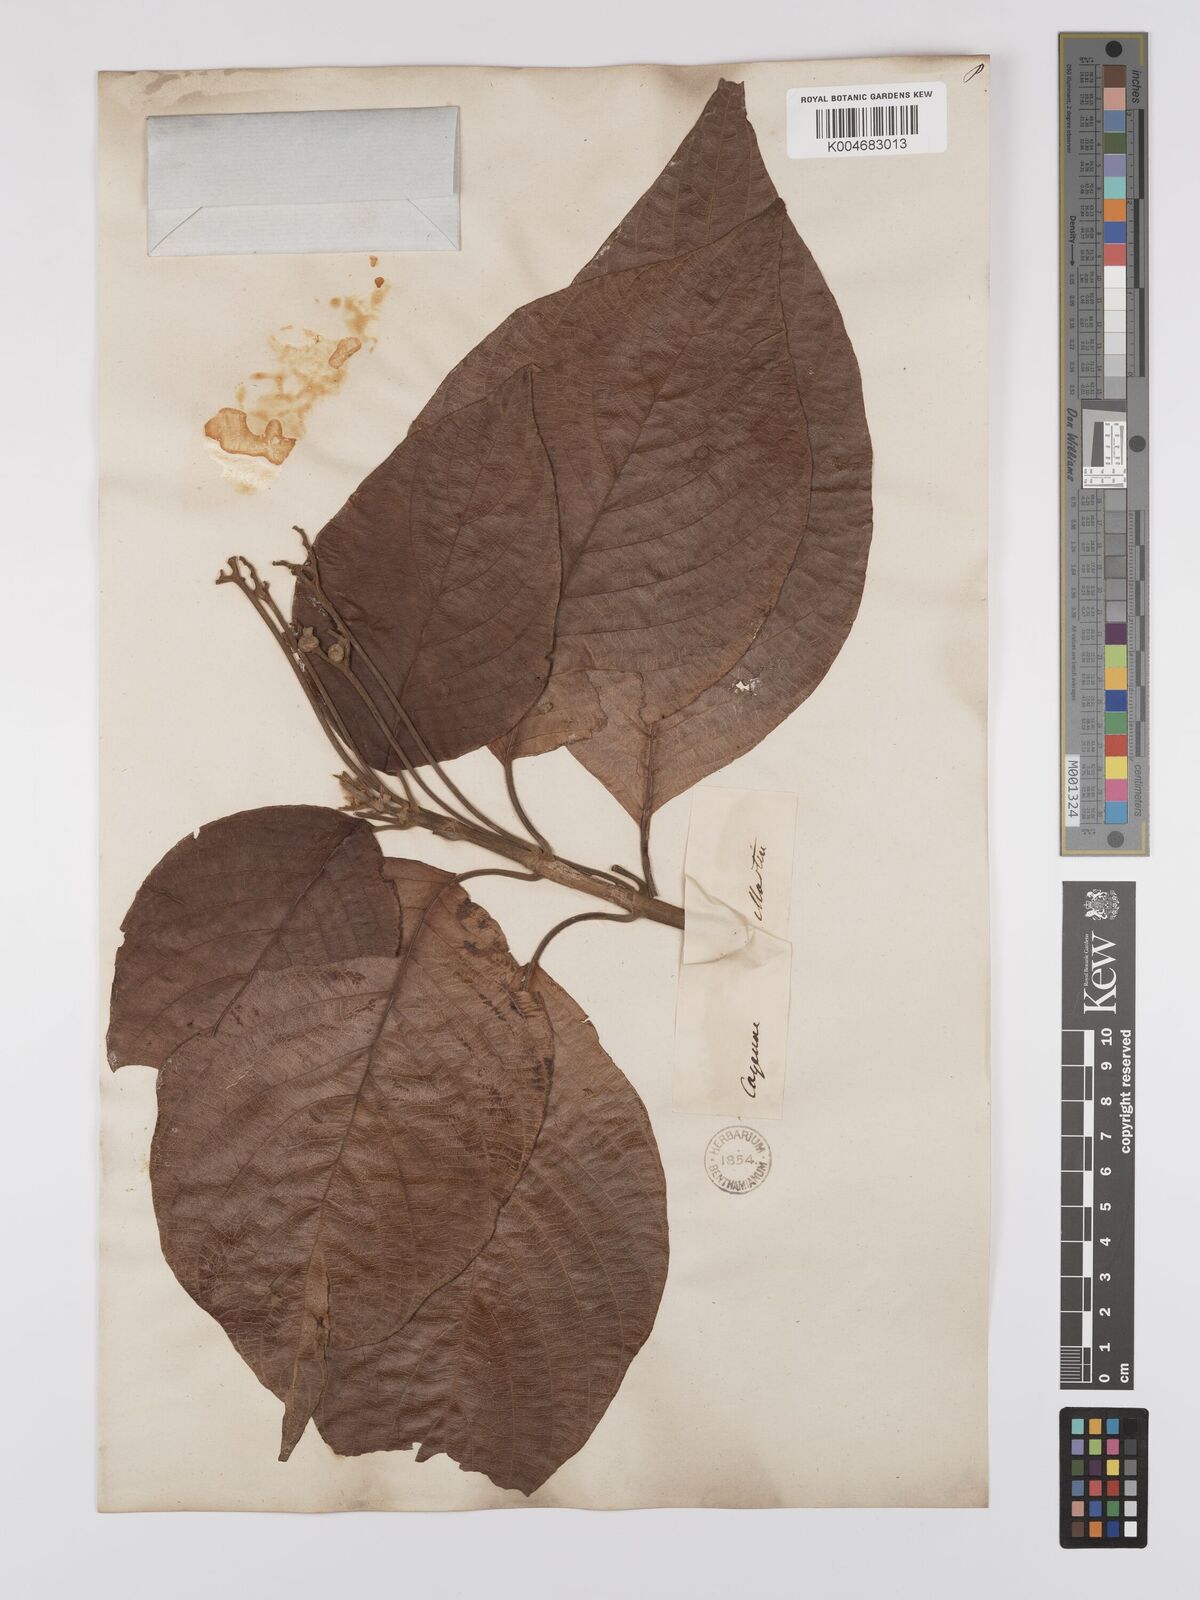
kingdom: Plantae
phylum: Tracheophyta
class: Magnoliopsida
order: Gentianales
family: Rubiaceae
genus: Guettarda
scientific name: Guettarda macrantha
